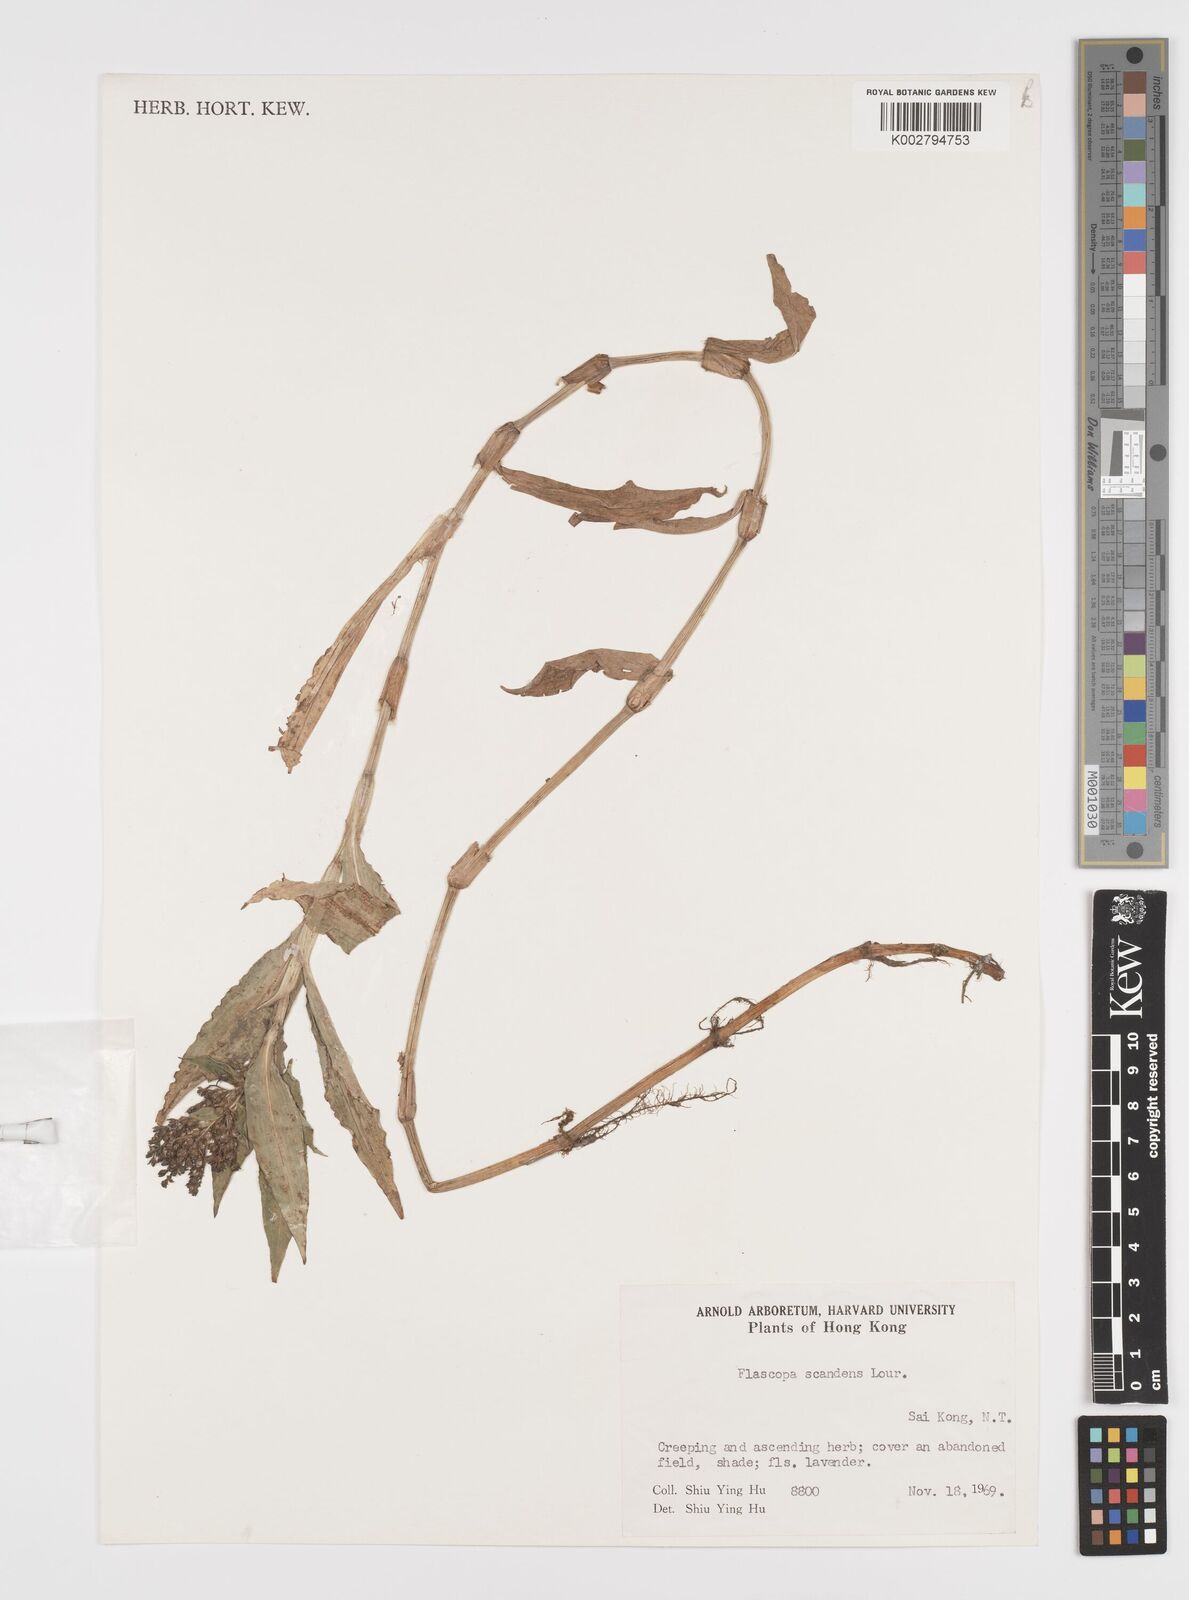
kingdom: Plantae
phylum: Tracheophyta
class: Liliopsida
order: Commelinales
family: Commelinaceae
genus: Floscopa
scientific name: Floscopa scandens
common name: Climbing flower cup
